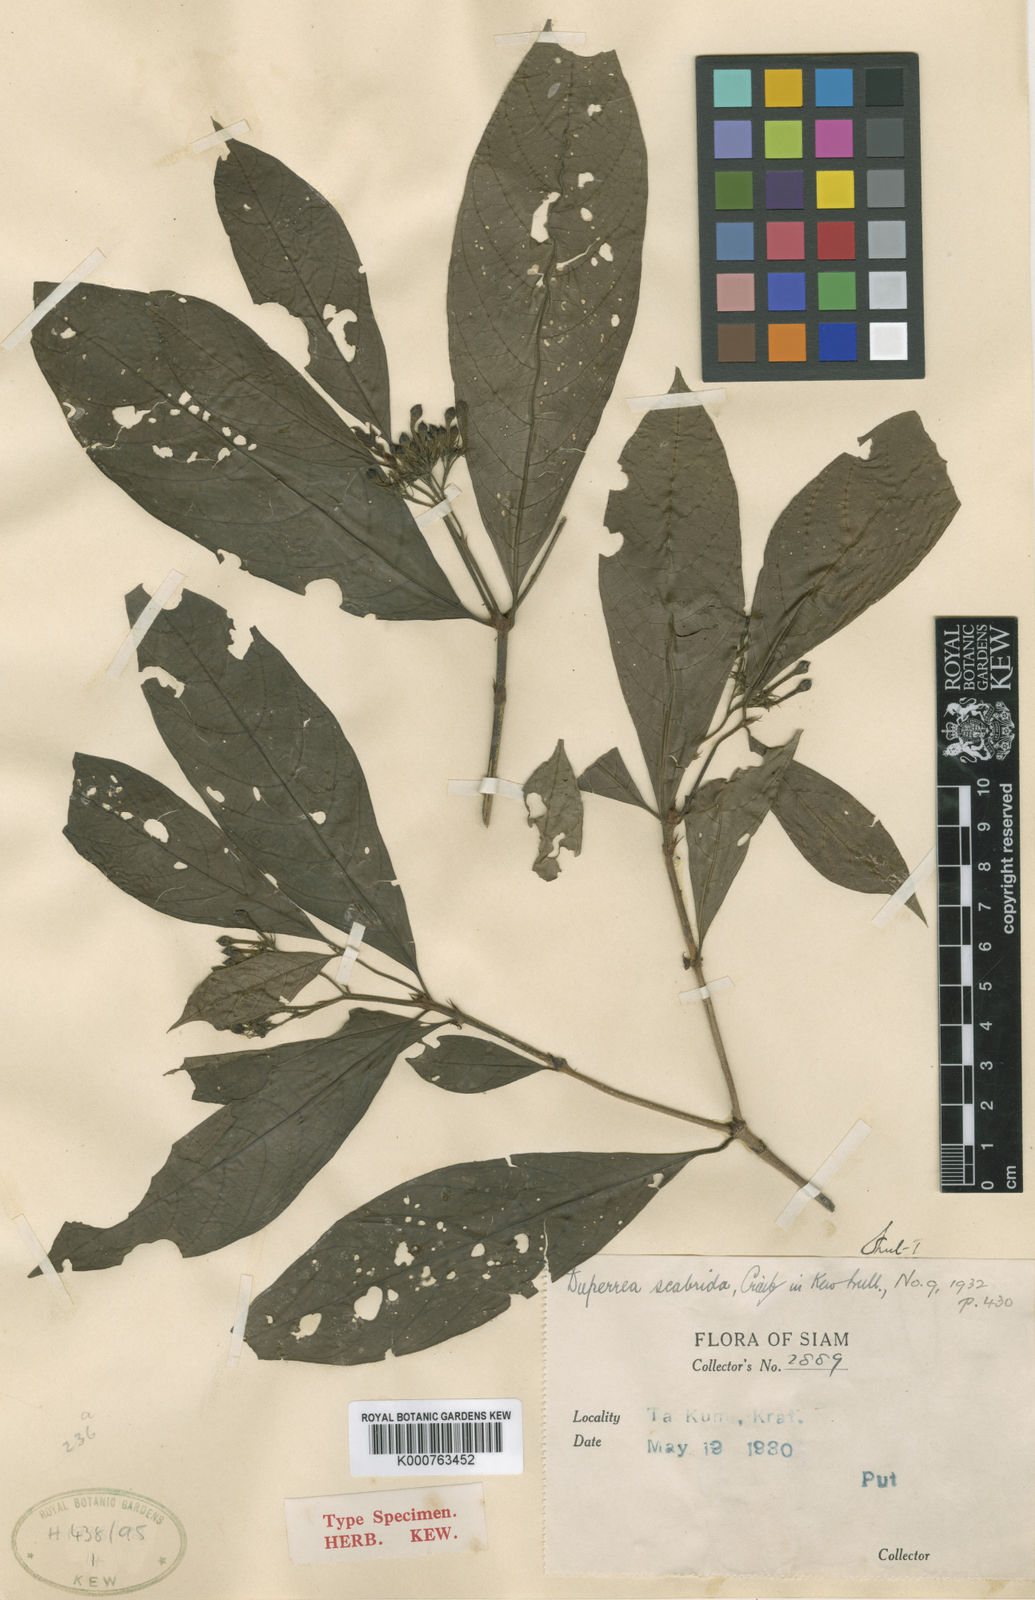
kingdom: Plantae
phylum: Tracheophyta
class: Magnoliopsida
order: Gentianales
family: Rubiaceae
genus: Duperrea
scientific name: Duperrea pavettifolia
